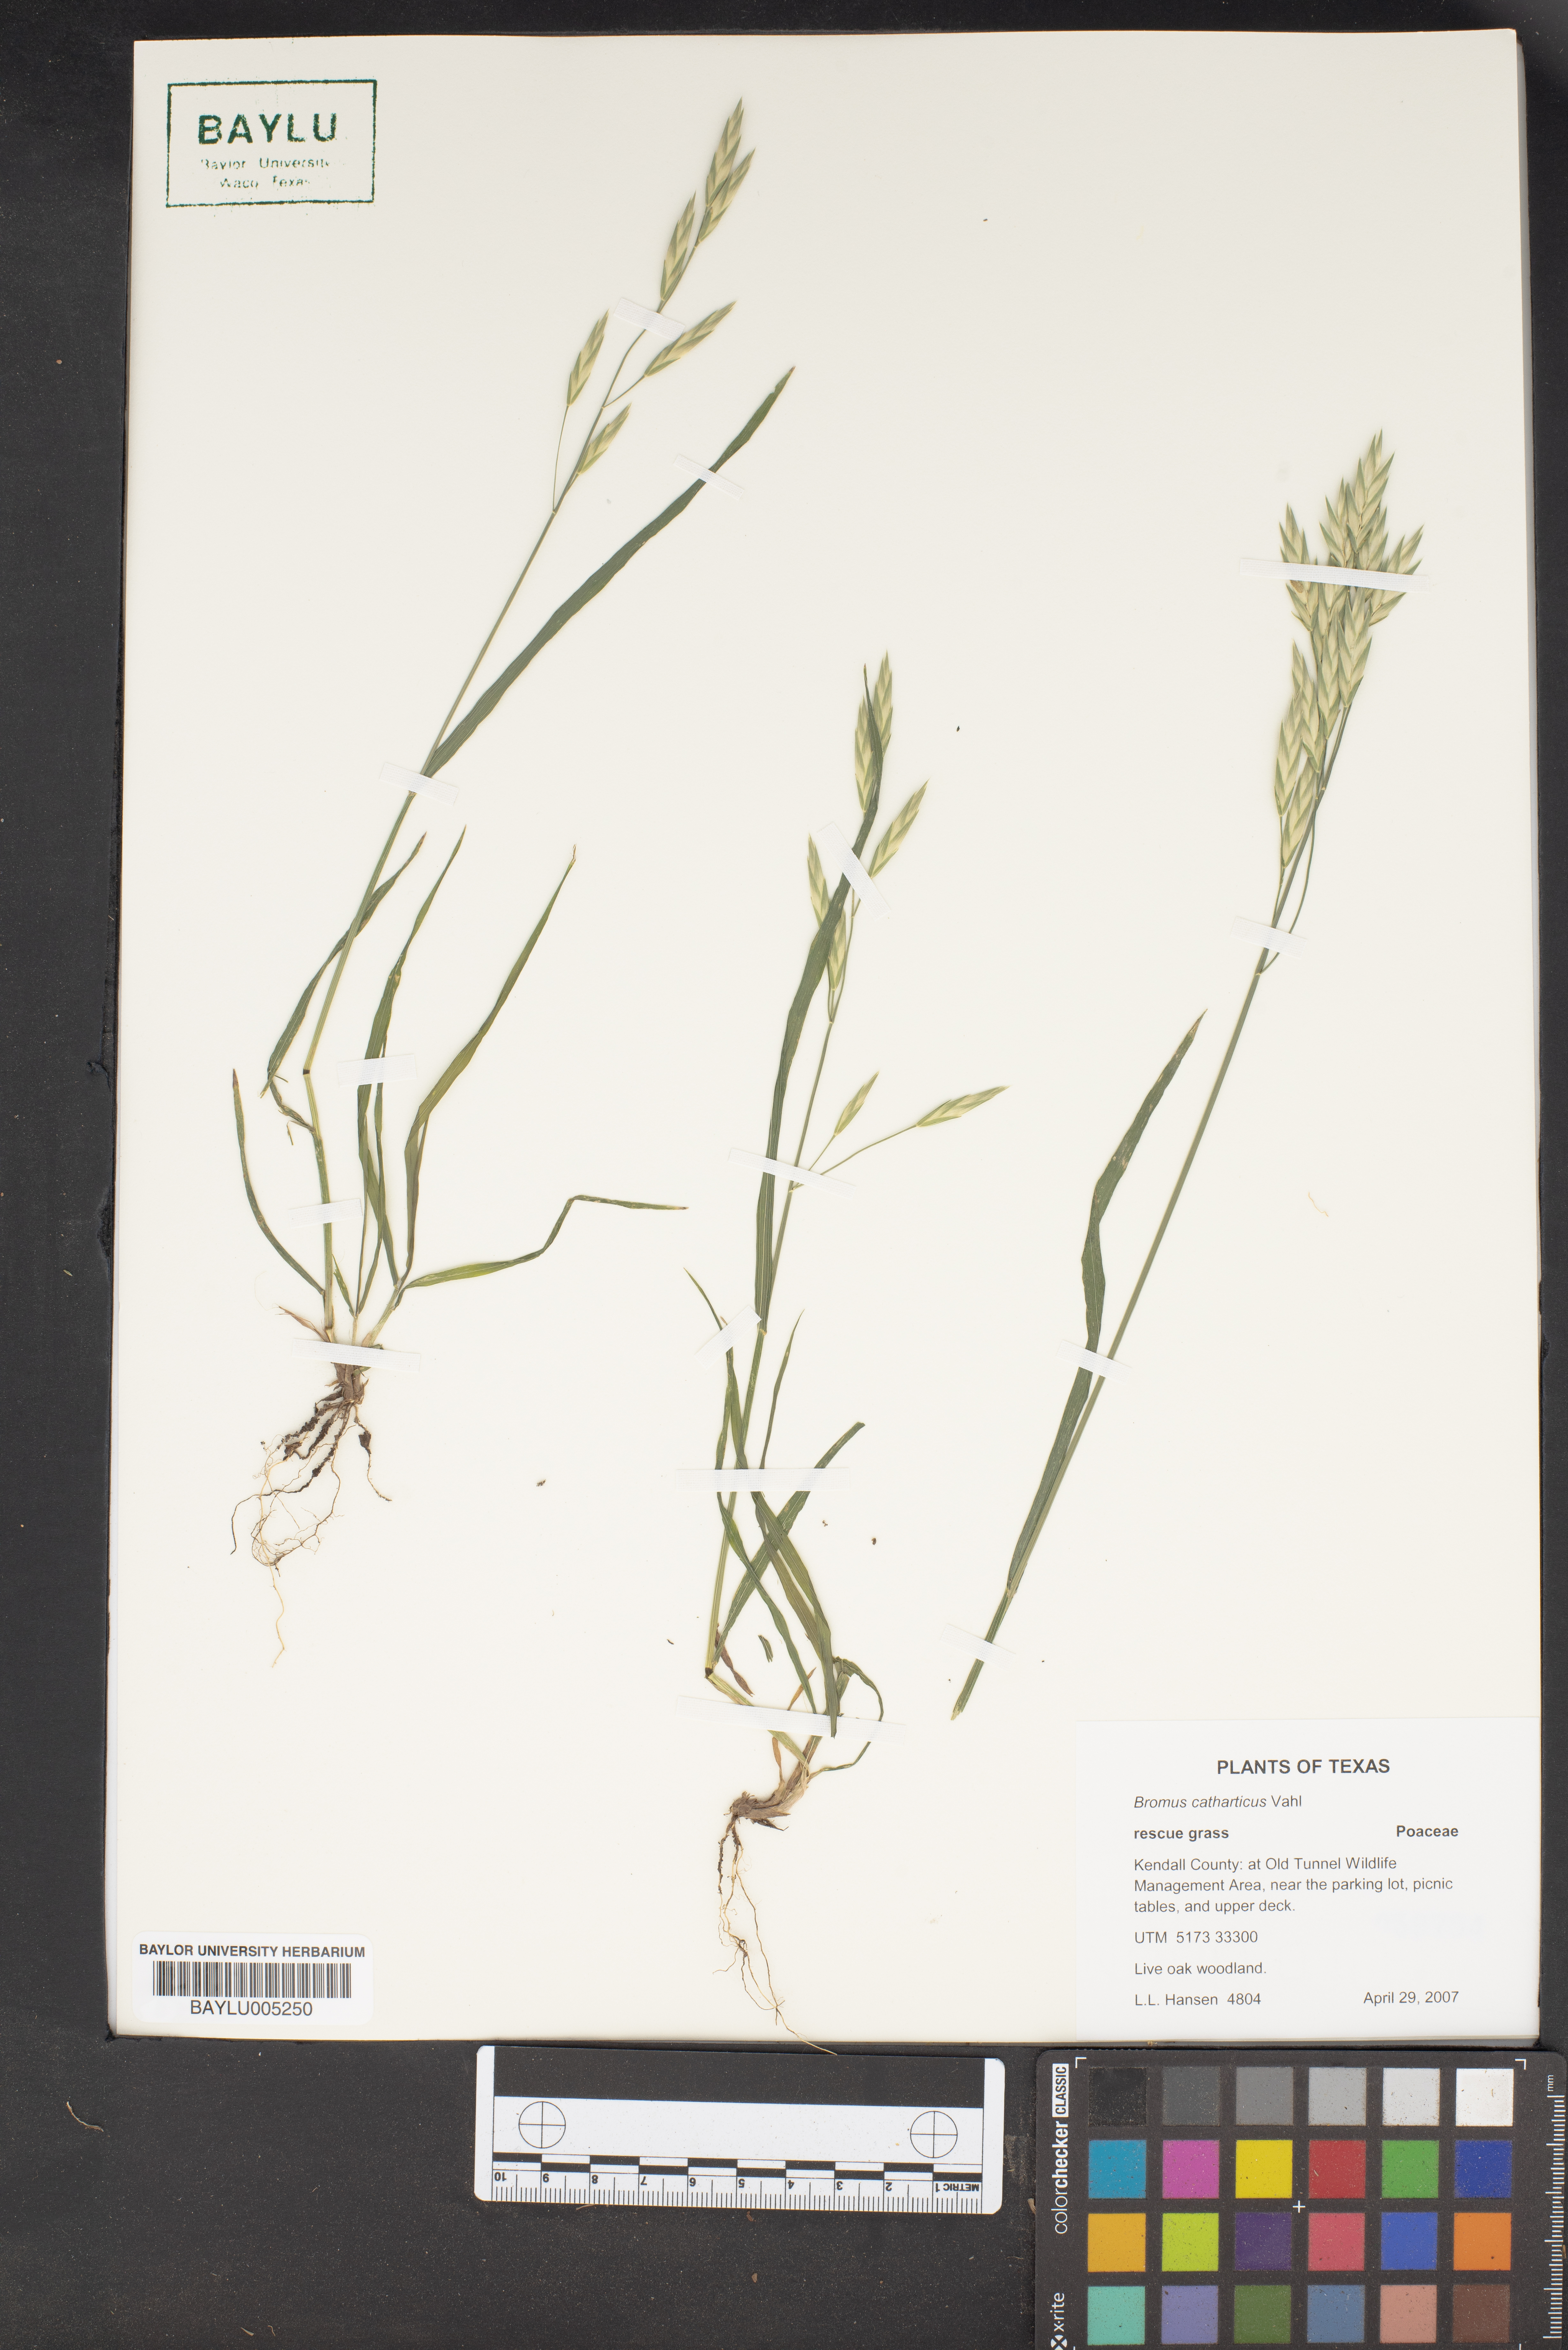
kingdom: Plantae
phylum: Tracheophyta
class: Liliopsida
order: Poales
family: Poaceae
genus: Bromus
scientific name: Bromus catharticus
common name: Rescuegrass
